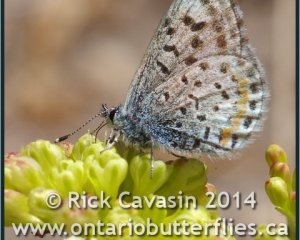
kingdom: Animalia
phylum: Arthropoda
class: Insecta
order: Lepidoptera
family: Lycaenidae
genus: Euphilotes
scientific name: Euphilotes enoptes
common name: Dotted Blue
